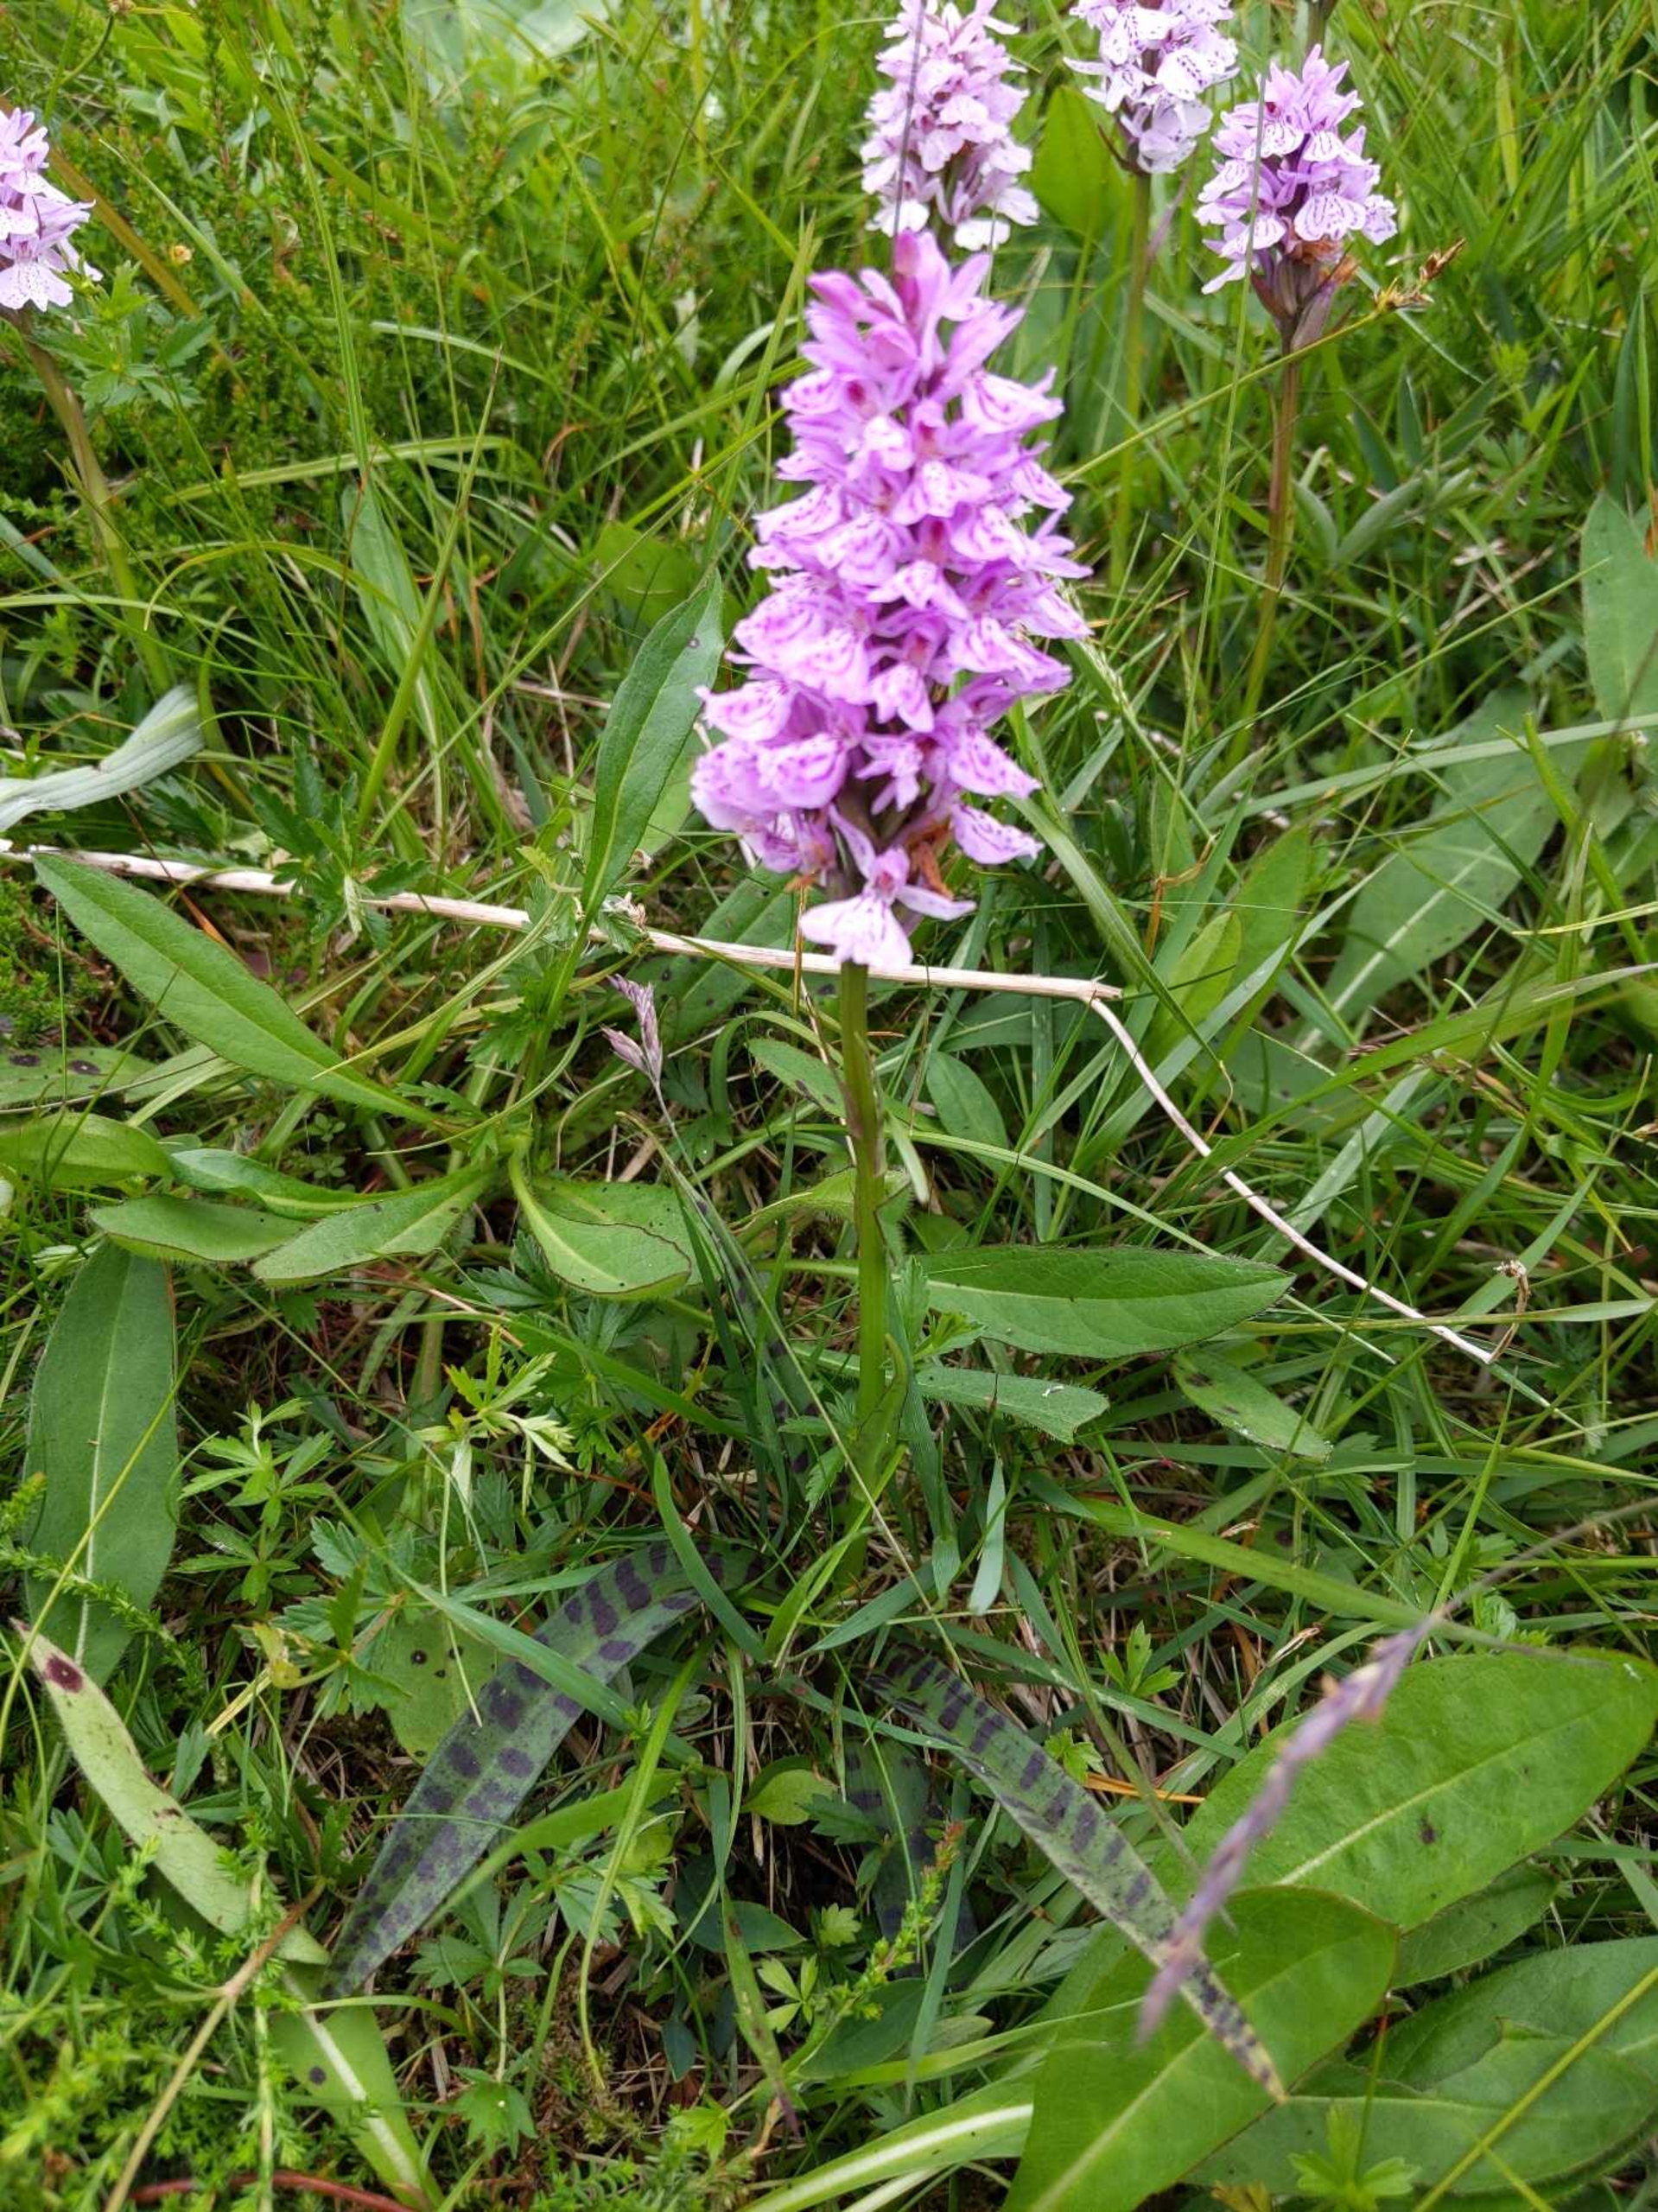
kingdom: Plantae
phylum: Tracheophyta
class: Liliopsida
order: Asparagales
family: Orchidaceae
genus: Dactylorhiza
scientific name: Dactylorhiza maculata
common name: Plettet gøgeurt (underart)
